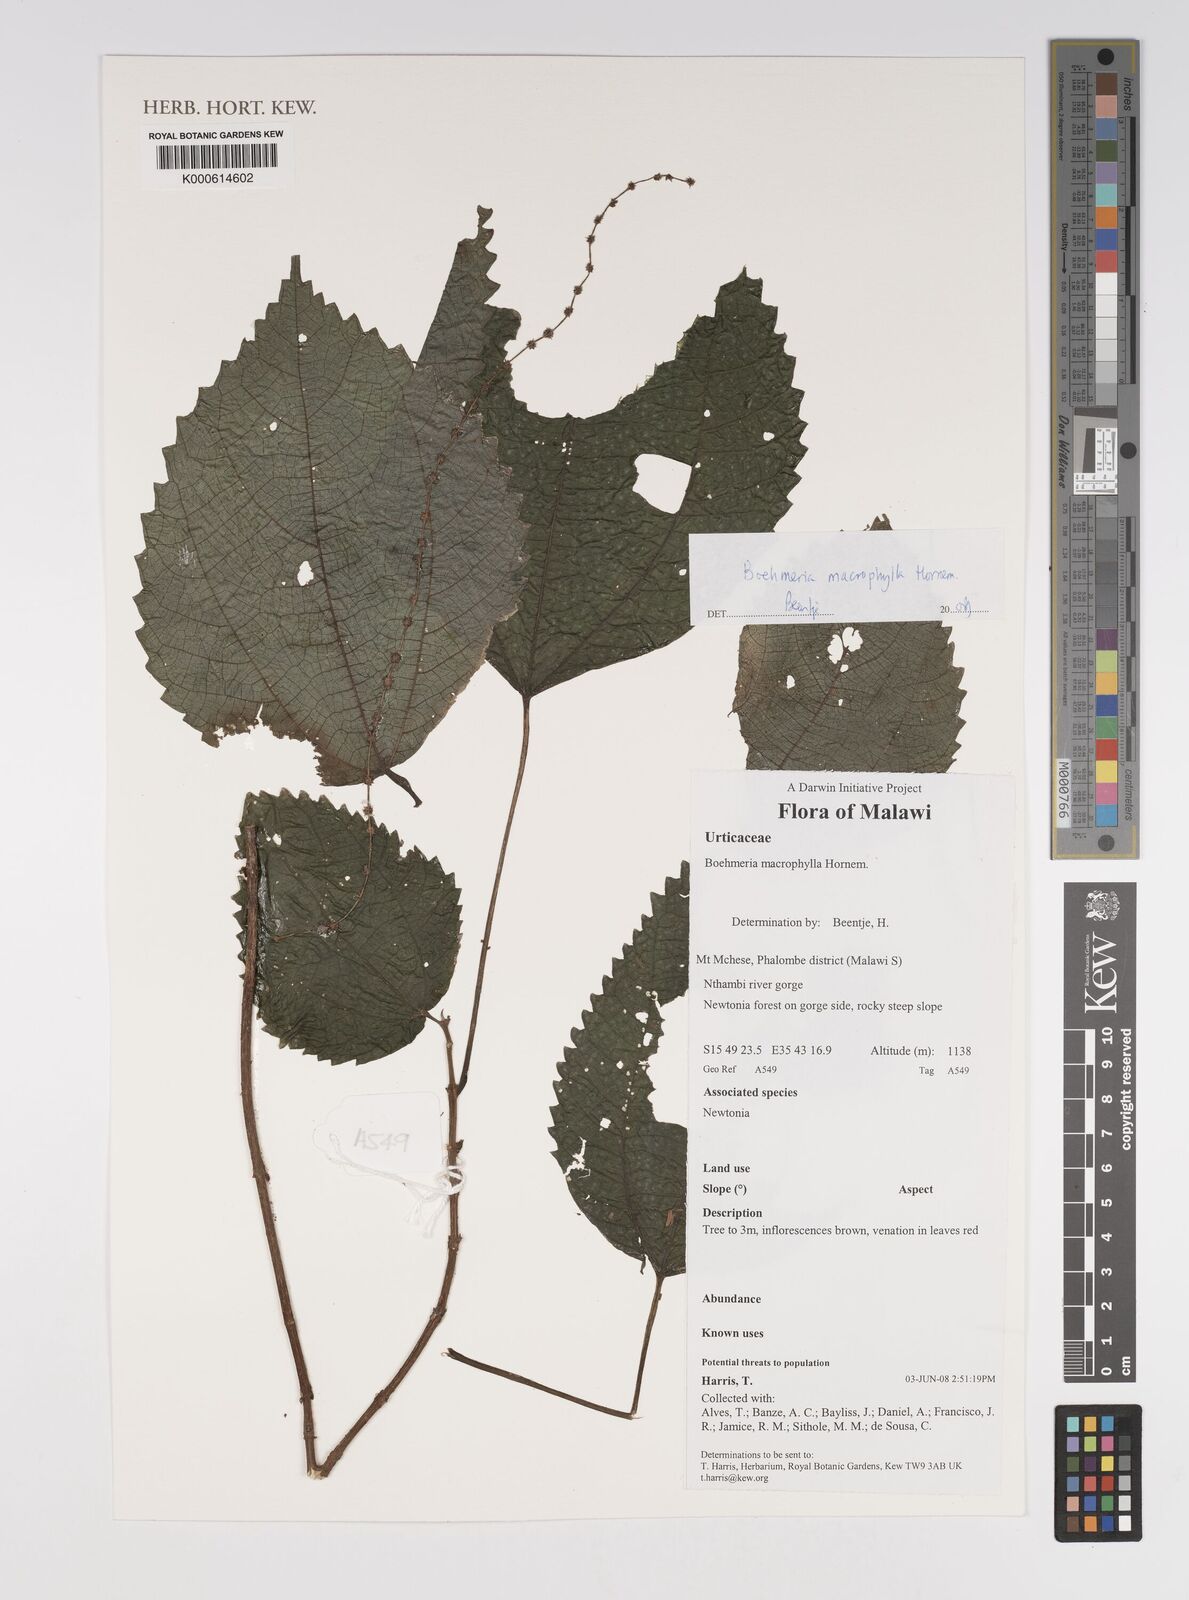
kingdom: Plantae
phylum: Tracheophyta
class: Magnoliopsida
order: Rosales
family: Urticaceae
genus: Boehmeria
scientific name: Boehmeria virgata
